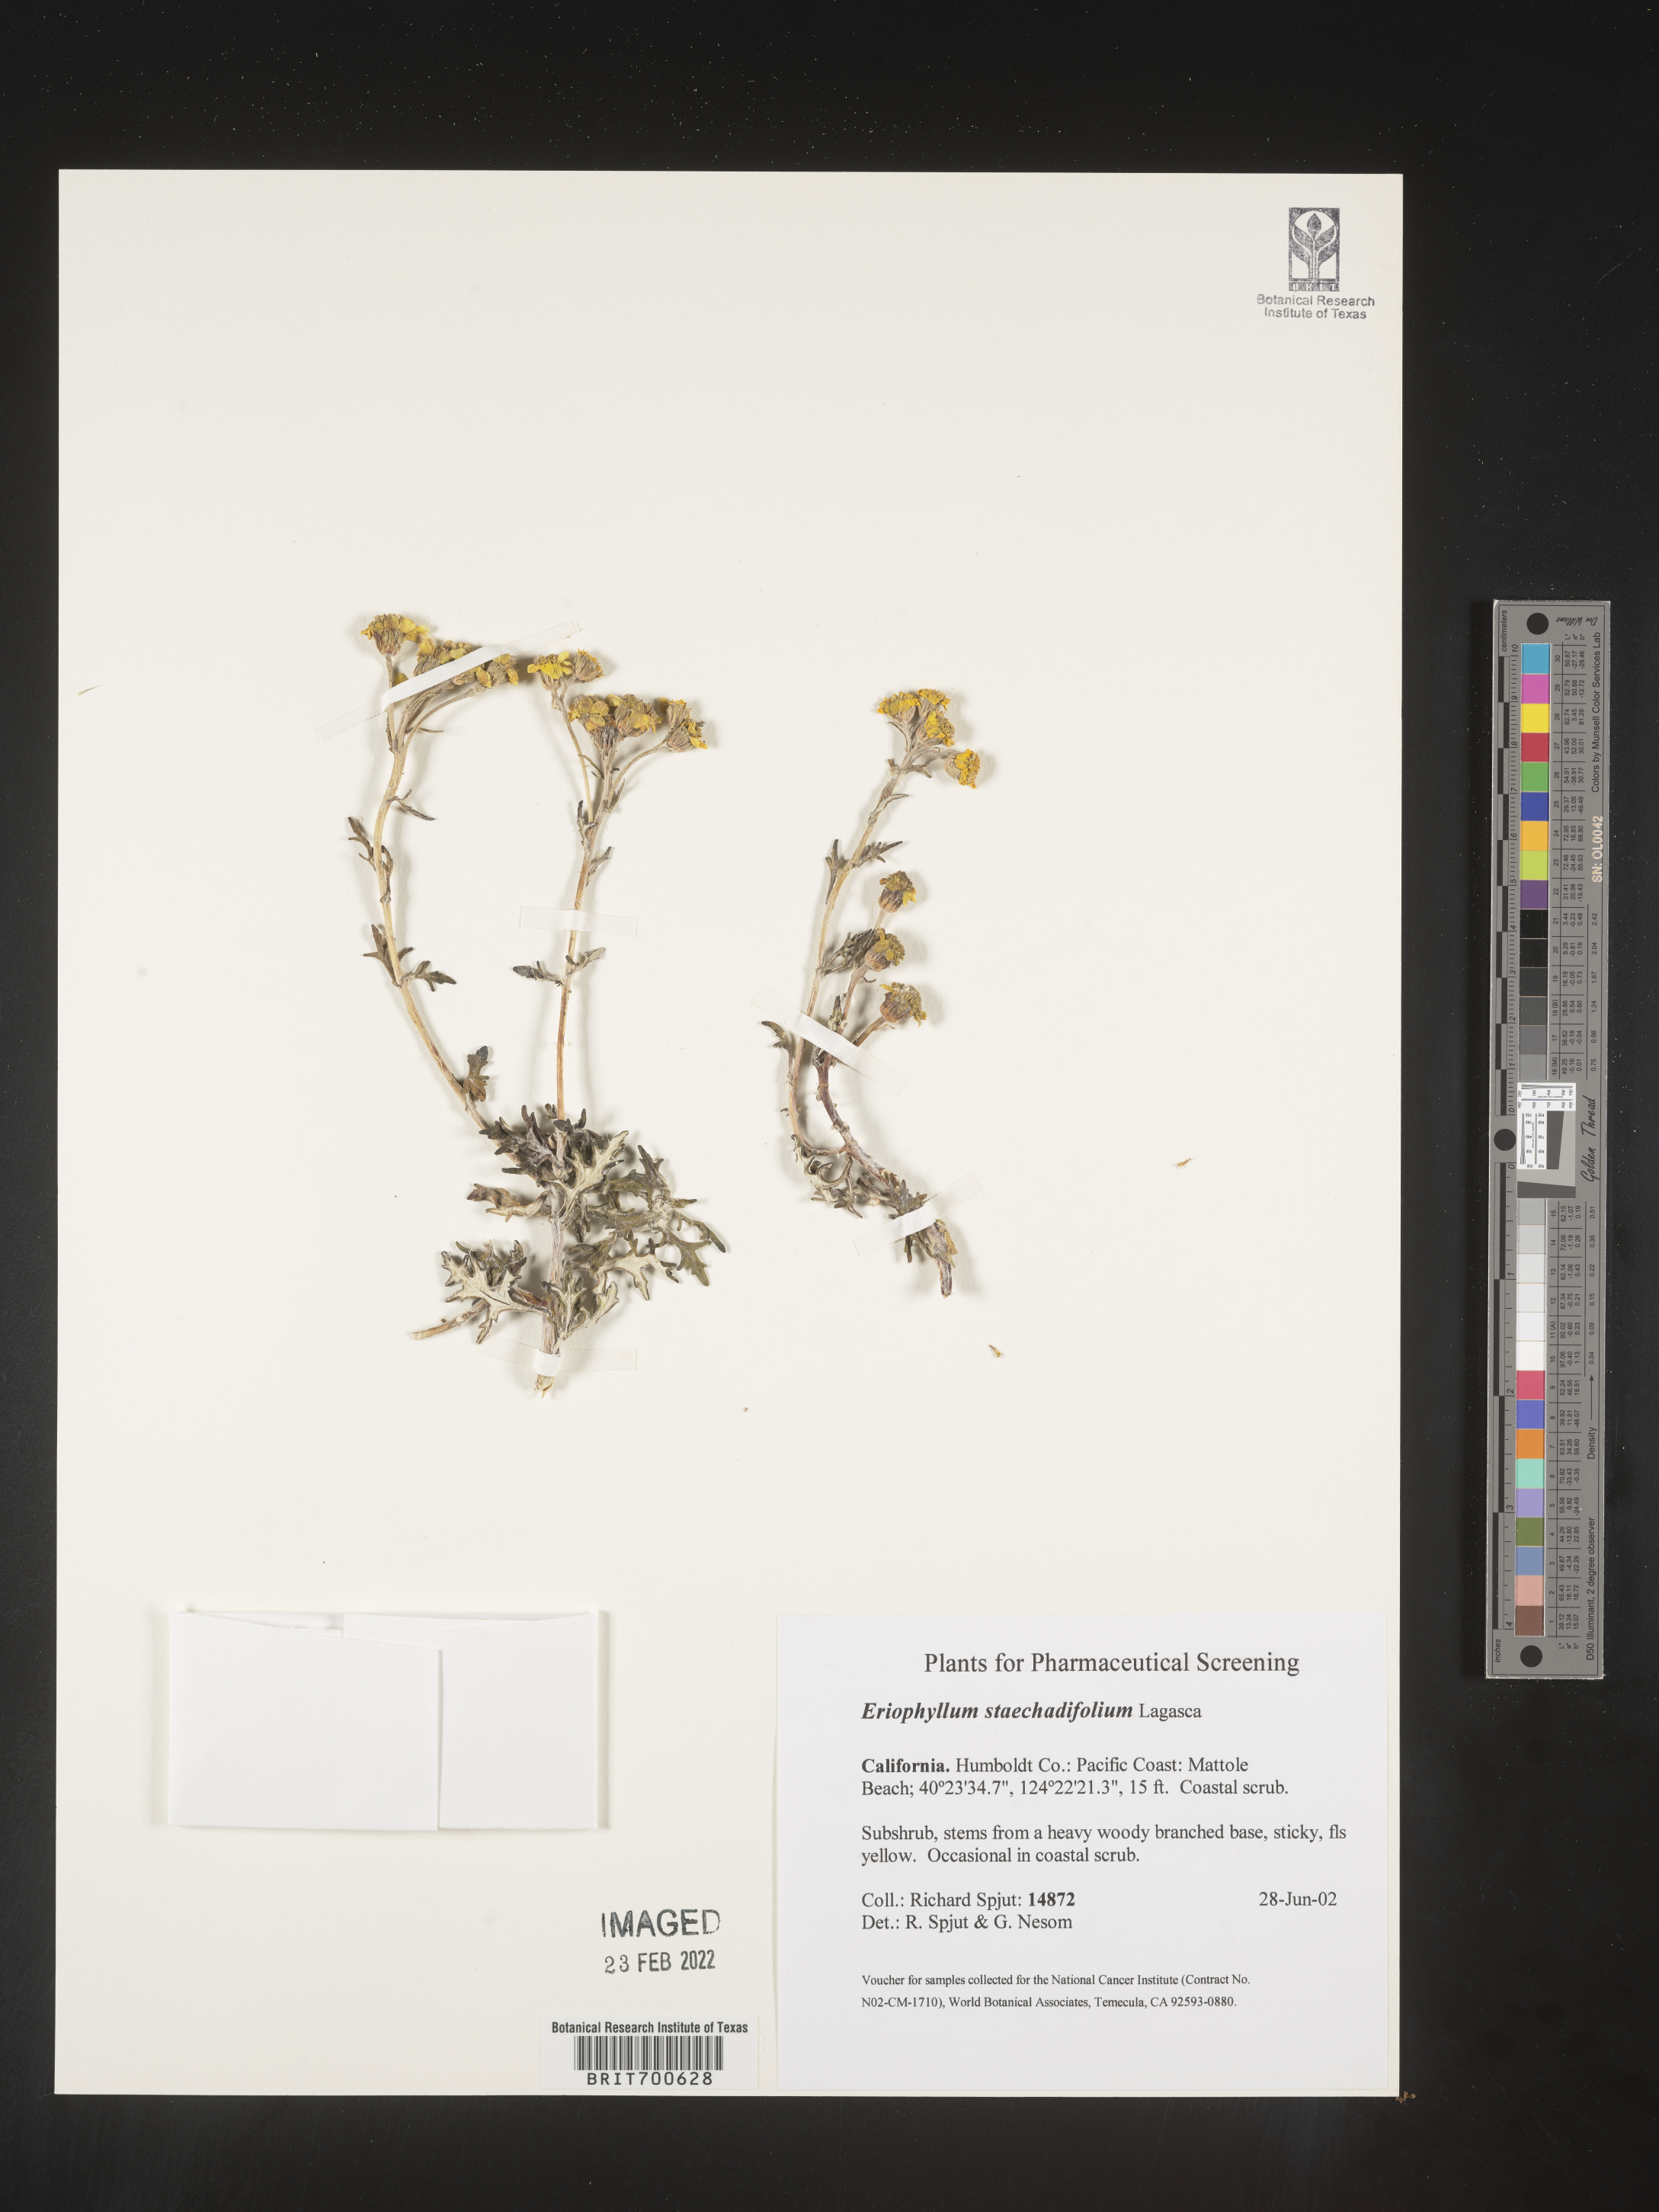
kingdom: Plantae
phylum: Tracheophyta
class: Magnoliopsida
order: Asterales
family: Asteraceae
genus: Eriophyllum
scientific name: Eriophyllum staechadifolium
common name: Lizardtail
